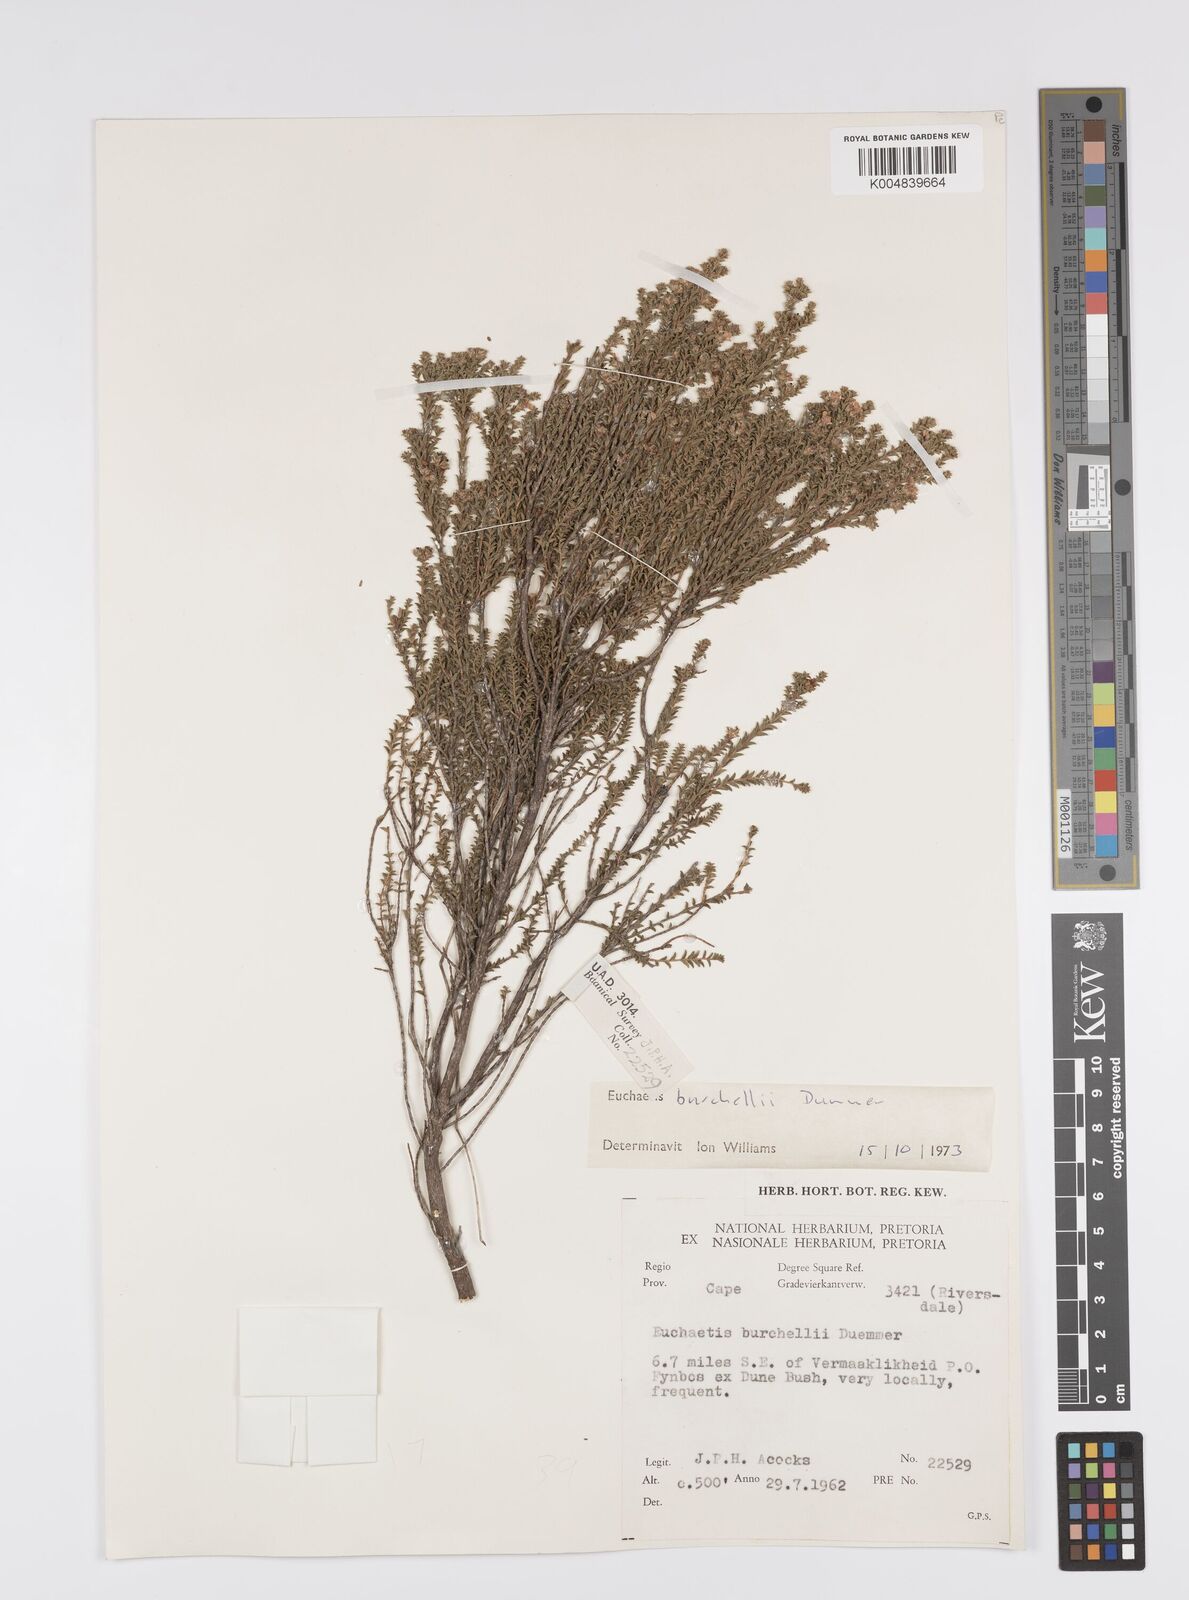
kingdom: Plantae
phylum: Tracheophyta
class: Magnoliopsida
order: Sapindales
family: Rutaceae
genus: Euchaetis
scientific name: Euchaetis burchellii
